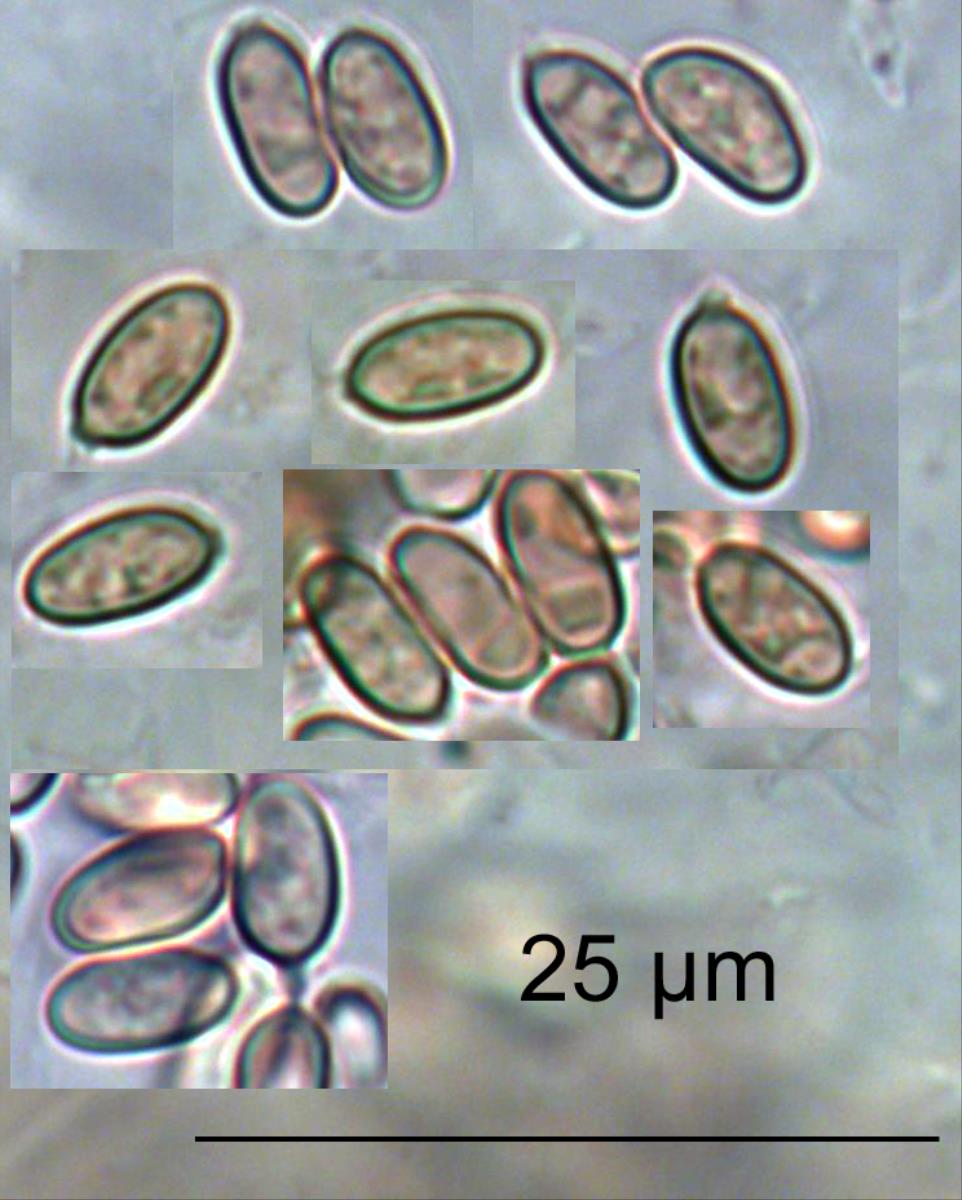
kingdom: Fungi
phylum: Basidiomycota
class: Agaricomycetes
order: Hysterangiales
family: Gallaceaceae
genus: Gallacea
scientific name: Gallacea
